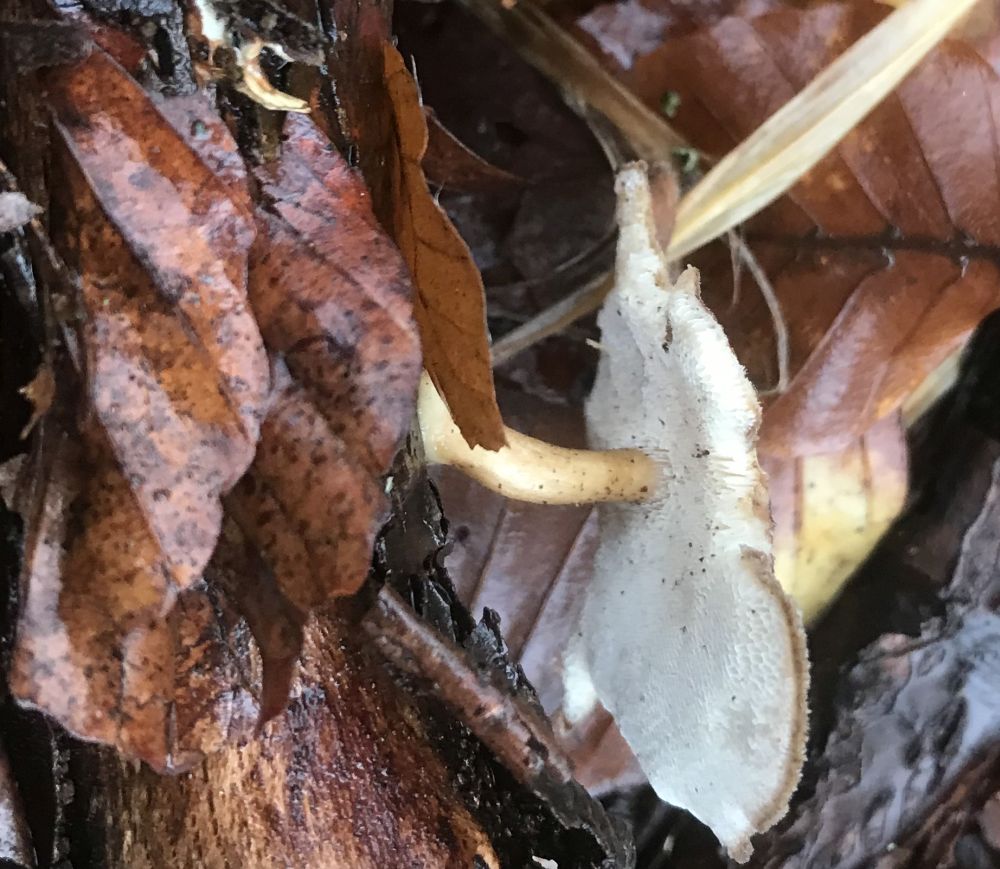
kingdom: Fungi
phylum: Basidiomycota
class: Agaricomycetes
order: Polyporales
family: Polyporaceae
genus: Lentinus
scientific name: Lentinus brumalis
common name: vinter-stilkporesvamp
